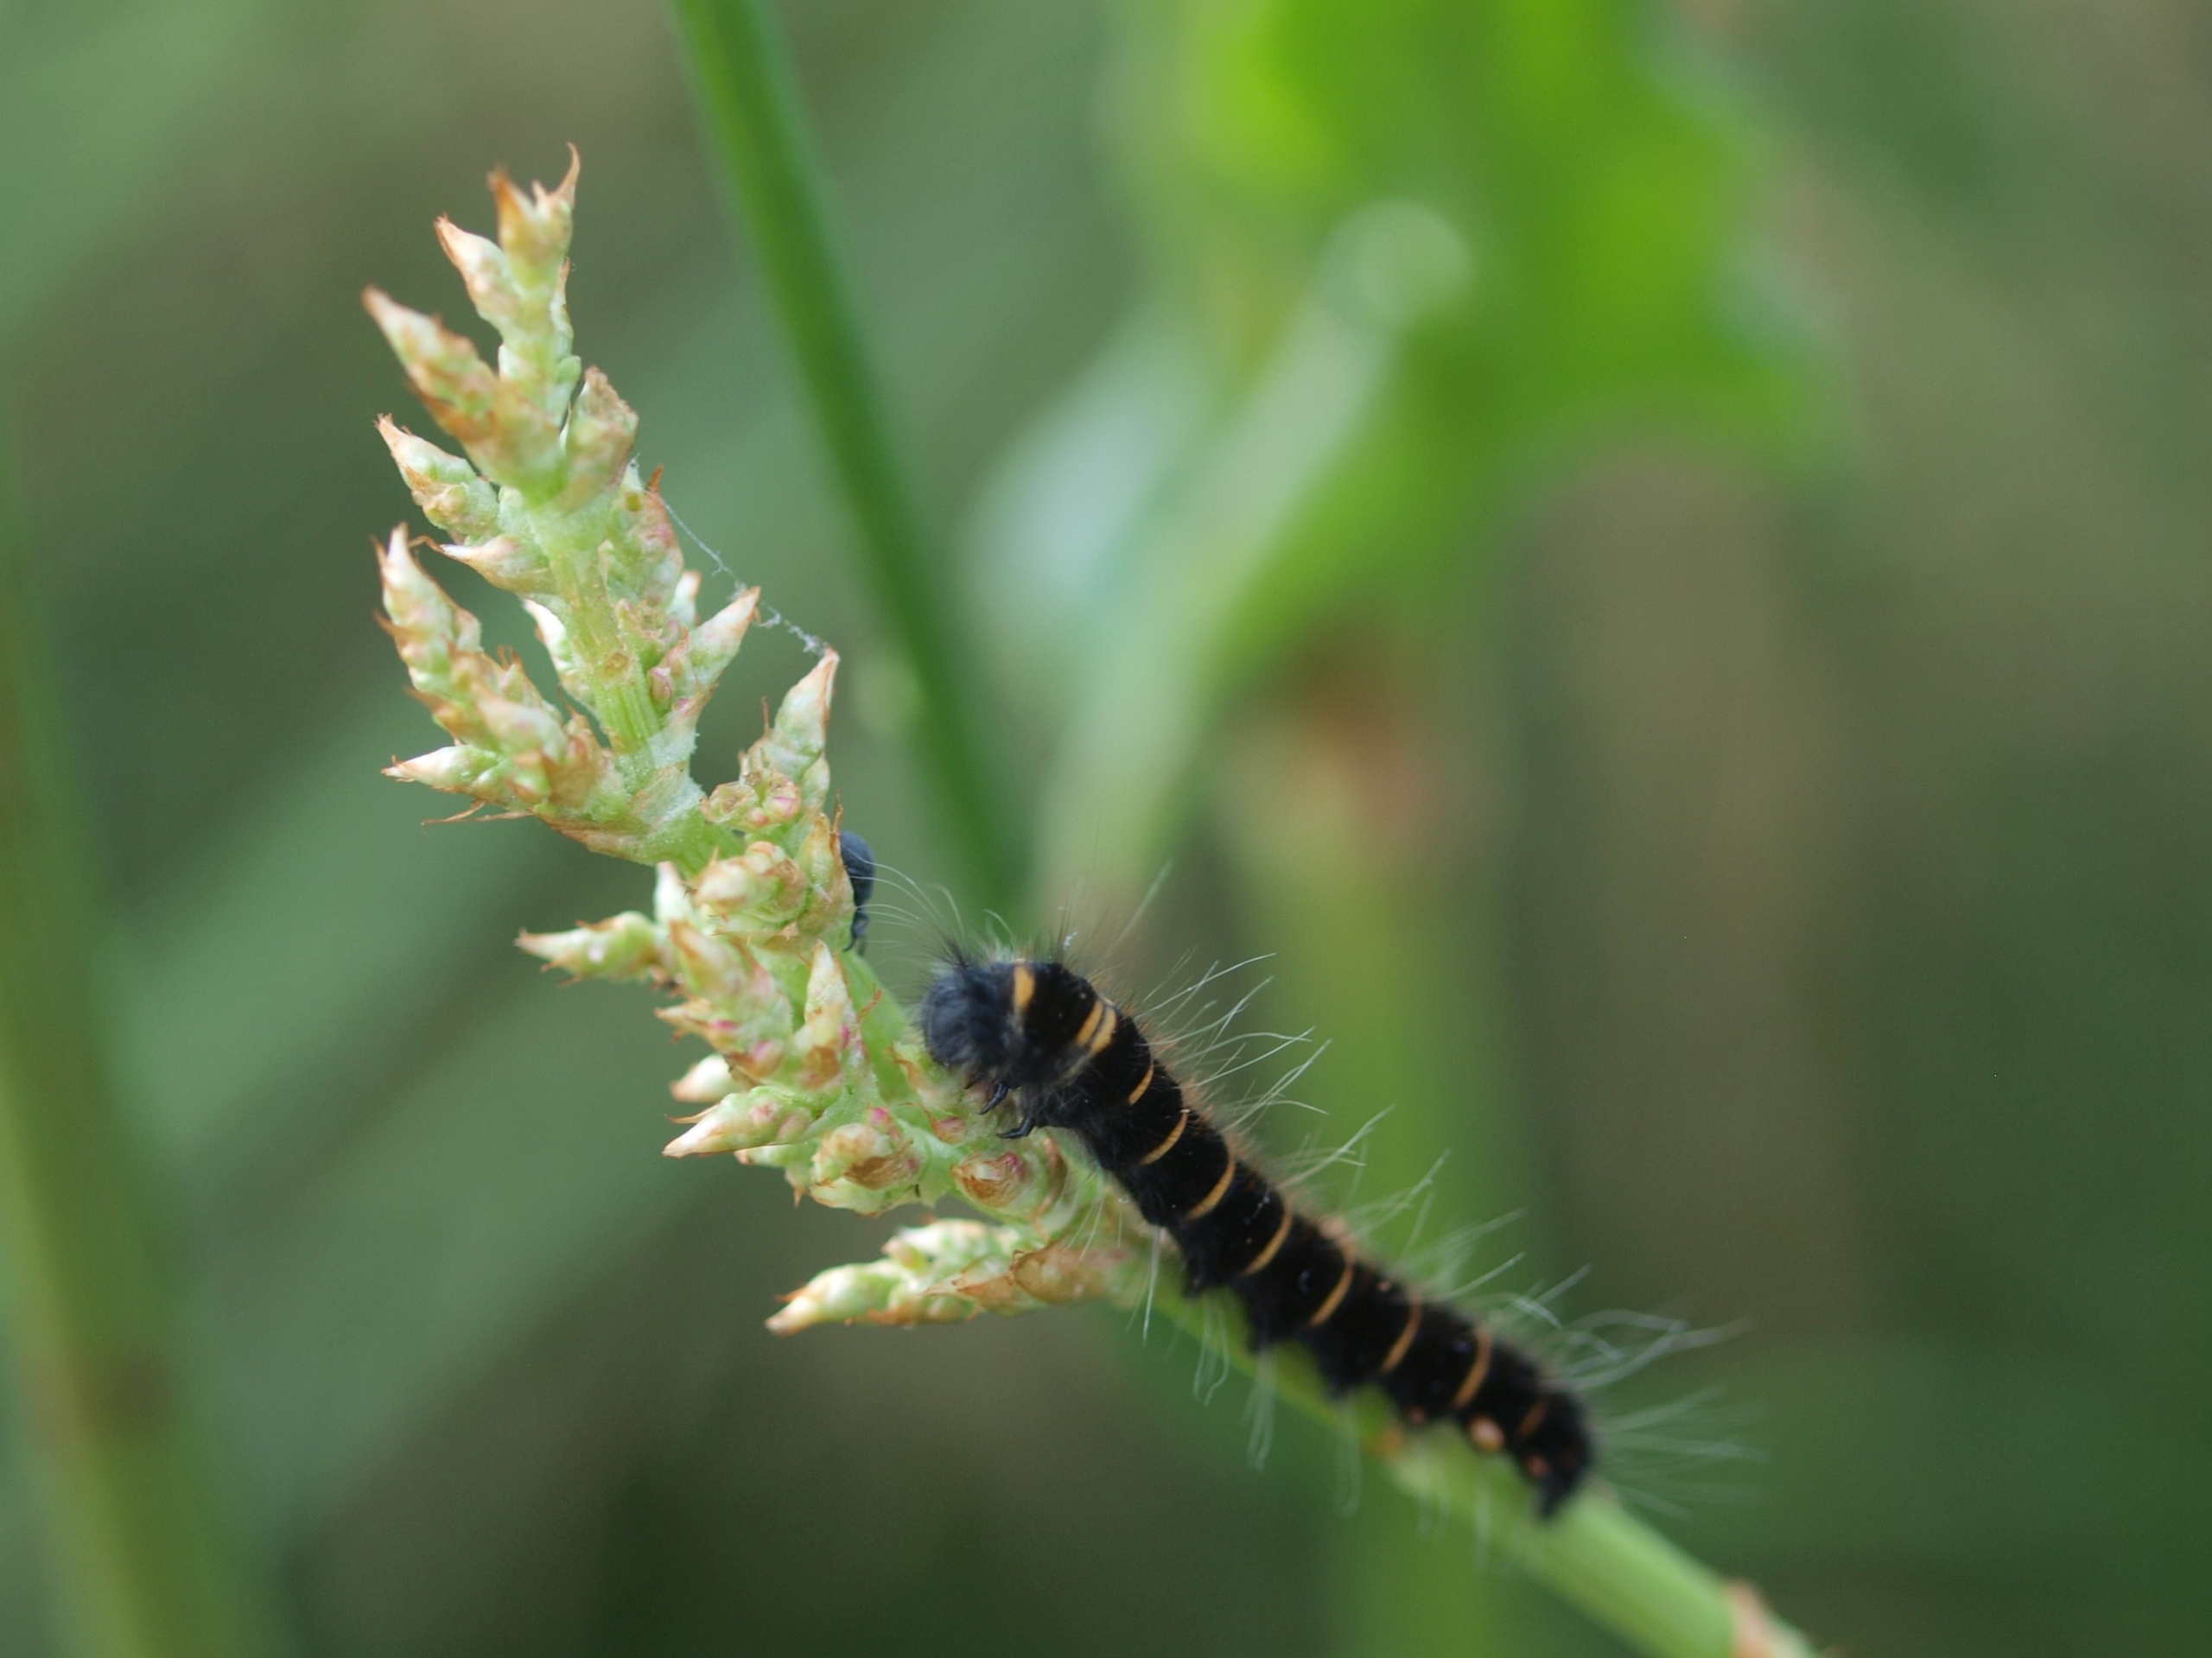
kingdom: Animalia
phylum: Arthropoda
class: Insecta
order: Lepidoptera
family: Lasiocampidae
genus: Macrothylacia
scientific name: Macrothylacia rubi
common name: Brombærspinder
